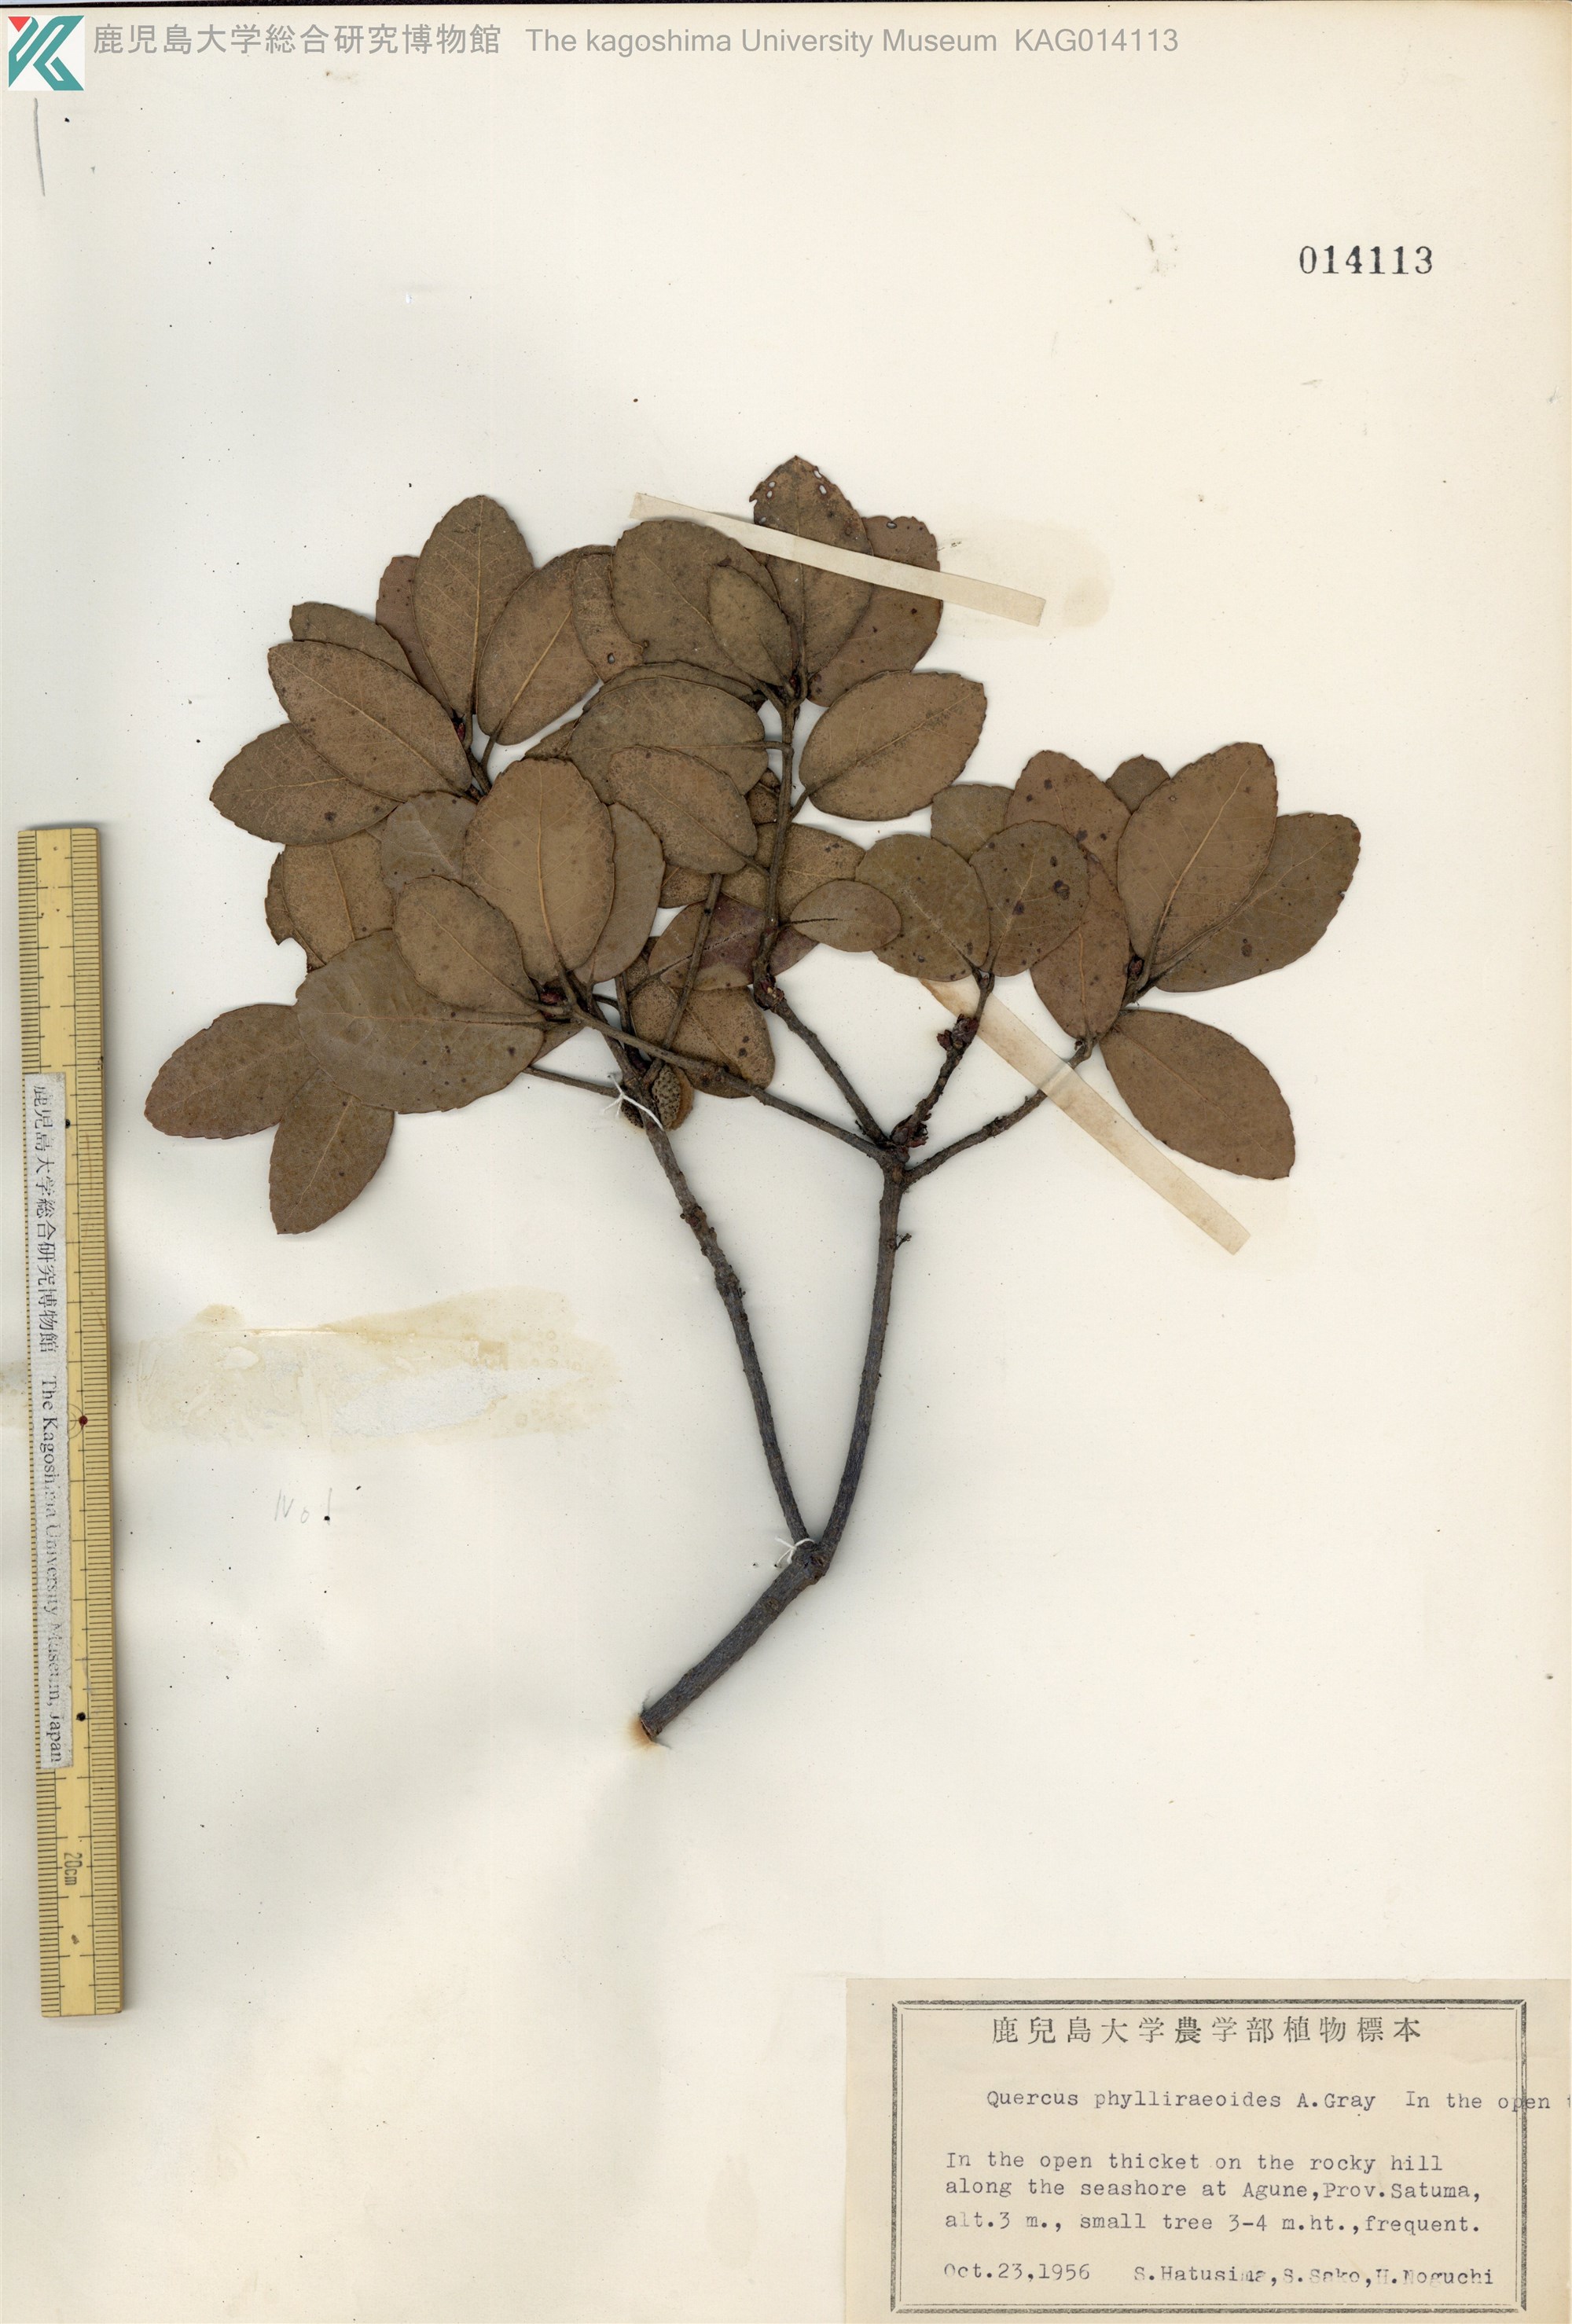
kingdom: Plantae
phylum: Tracheophyta
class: Magnoliopsida
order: Fagales
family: Fagaceae
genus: Quercus
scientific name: Quercus phillyraeoides
